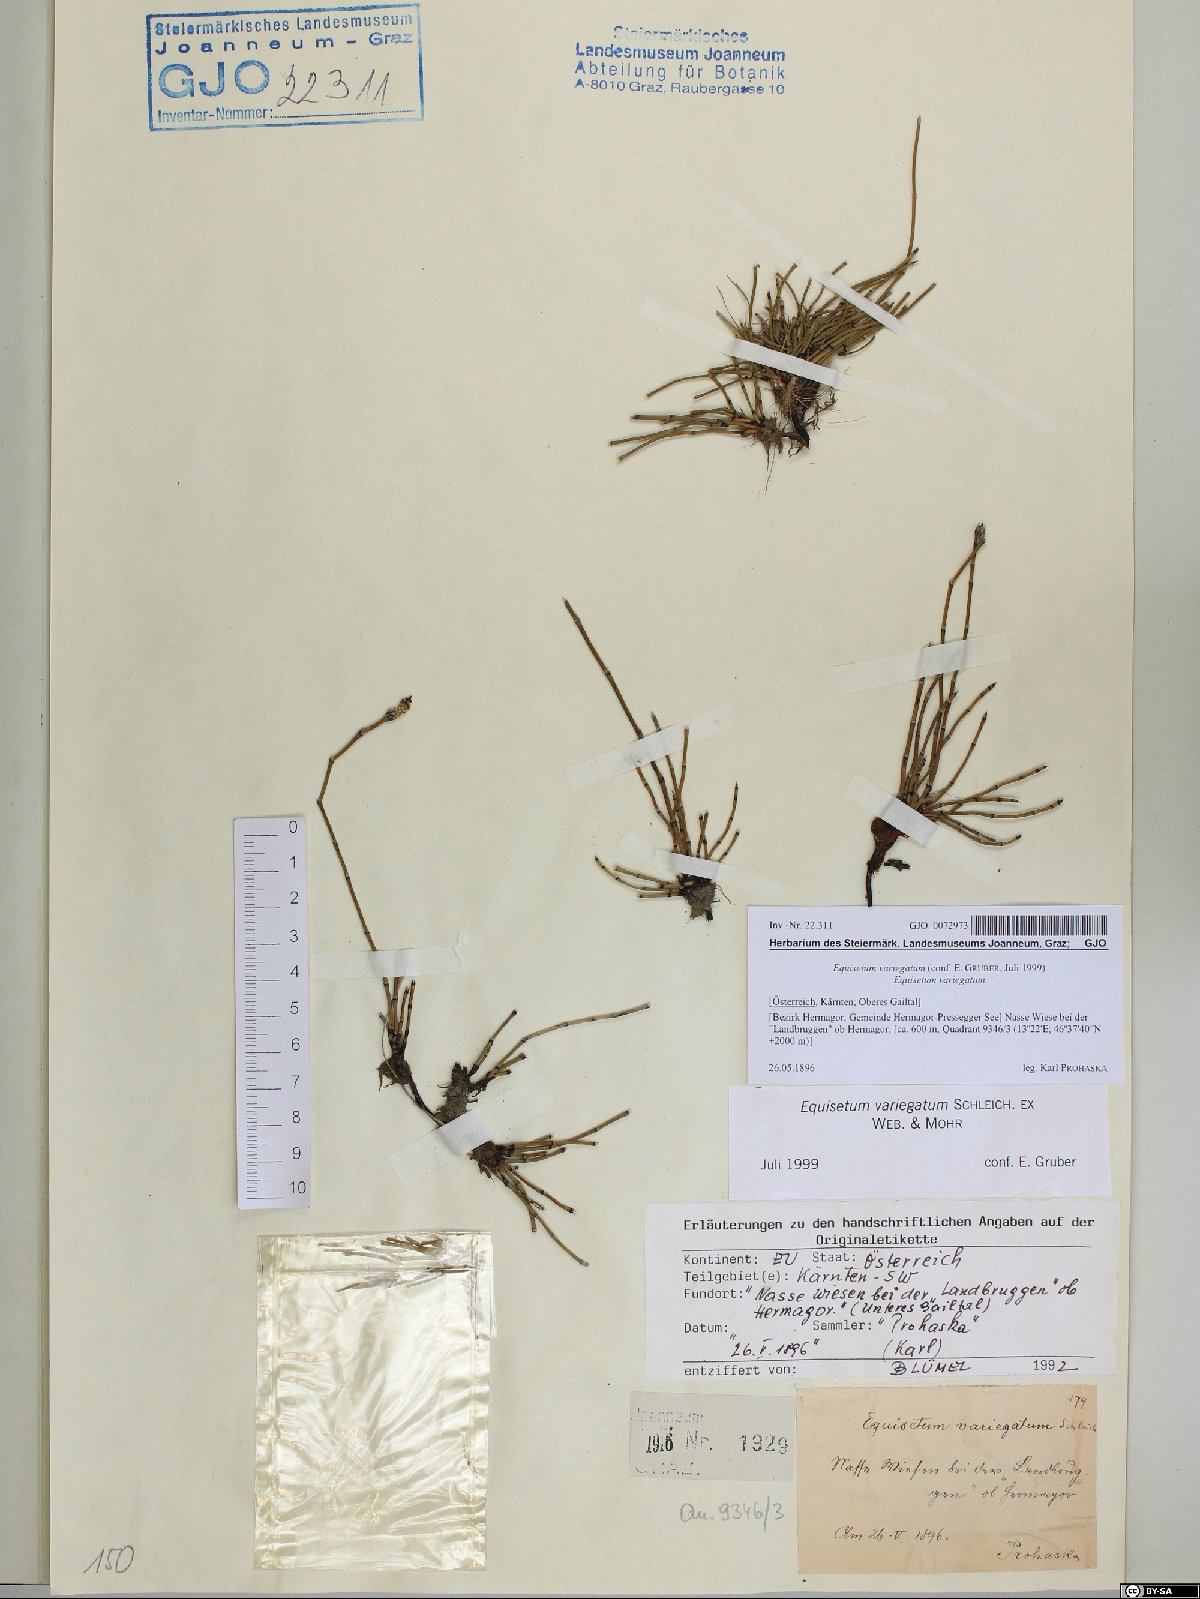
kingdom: Plantae
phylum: Tracheophyta
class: Polypodiopsida
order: Equisetales
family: Equisetaceae
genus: Equisetum
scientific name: Equisetum variegatum
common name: Variegated horsetail
